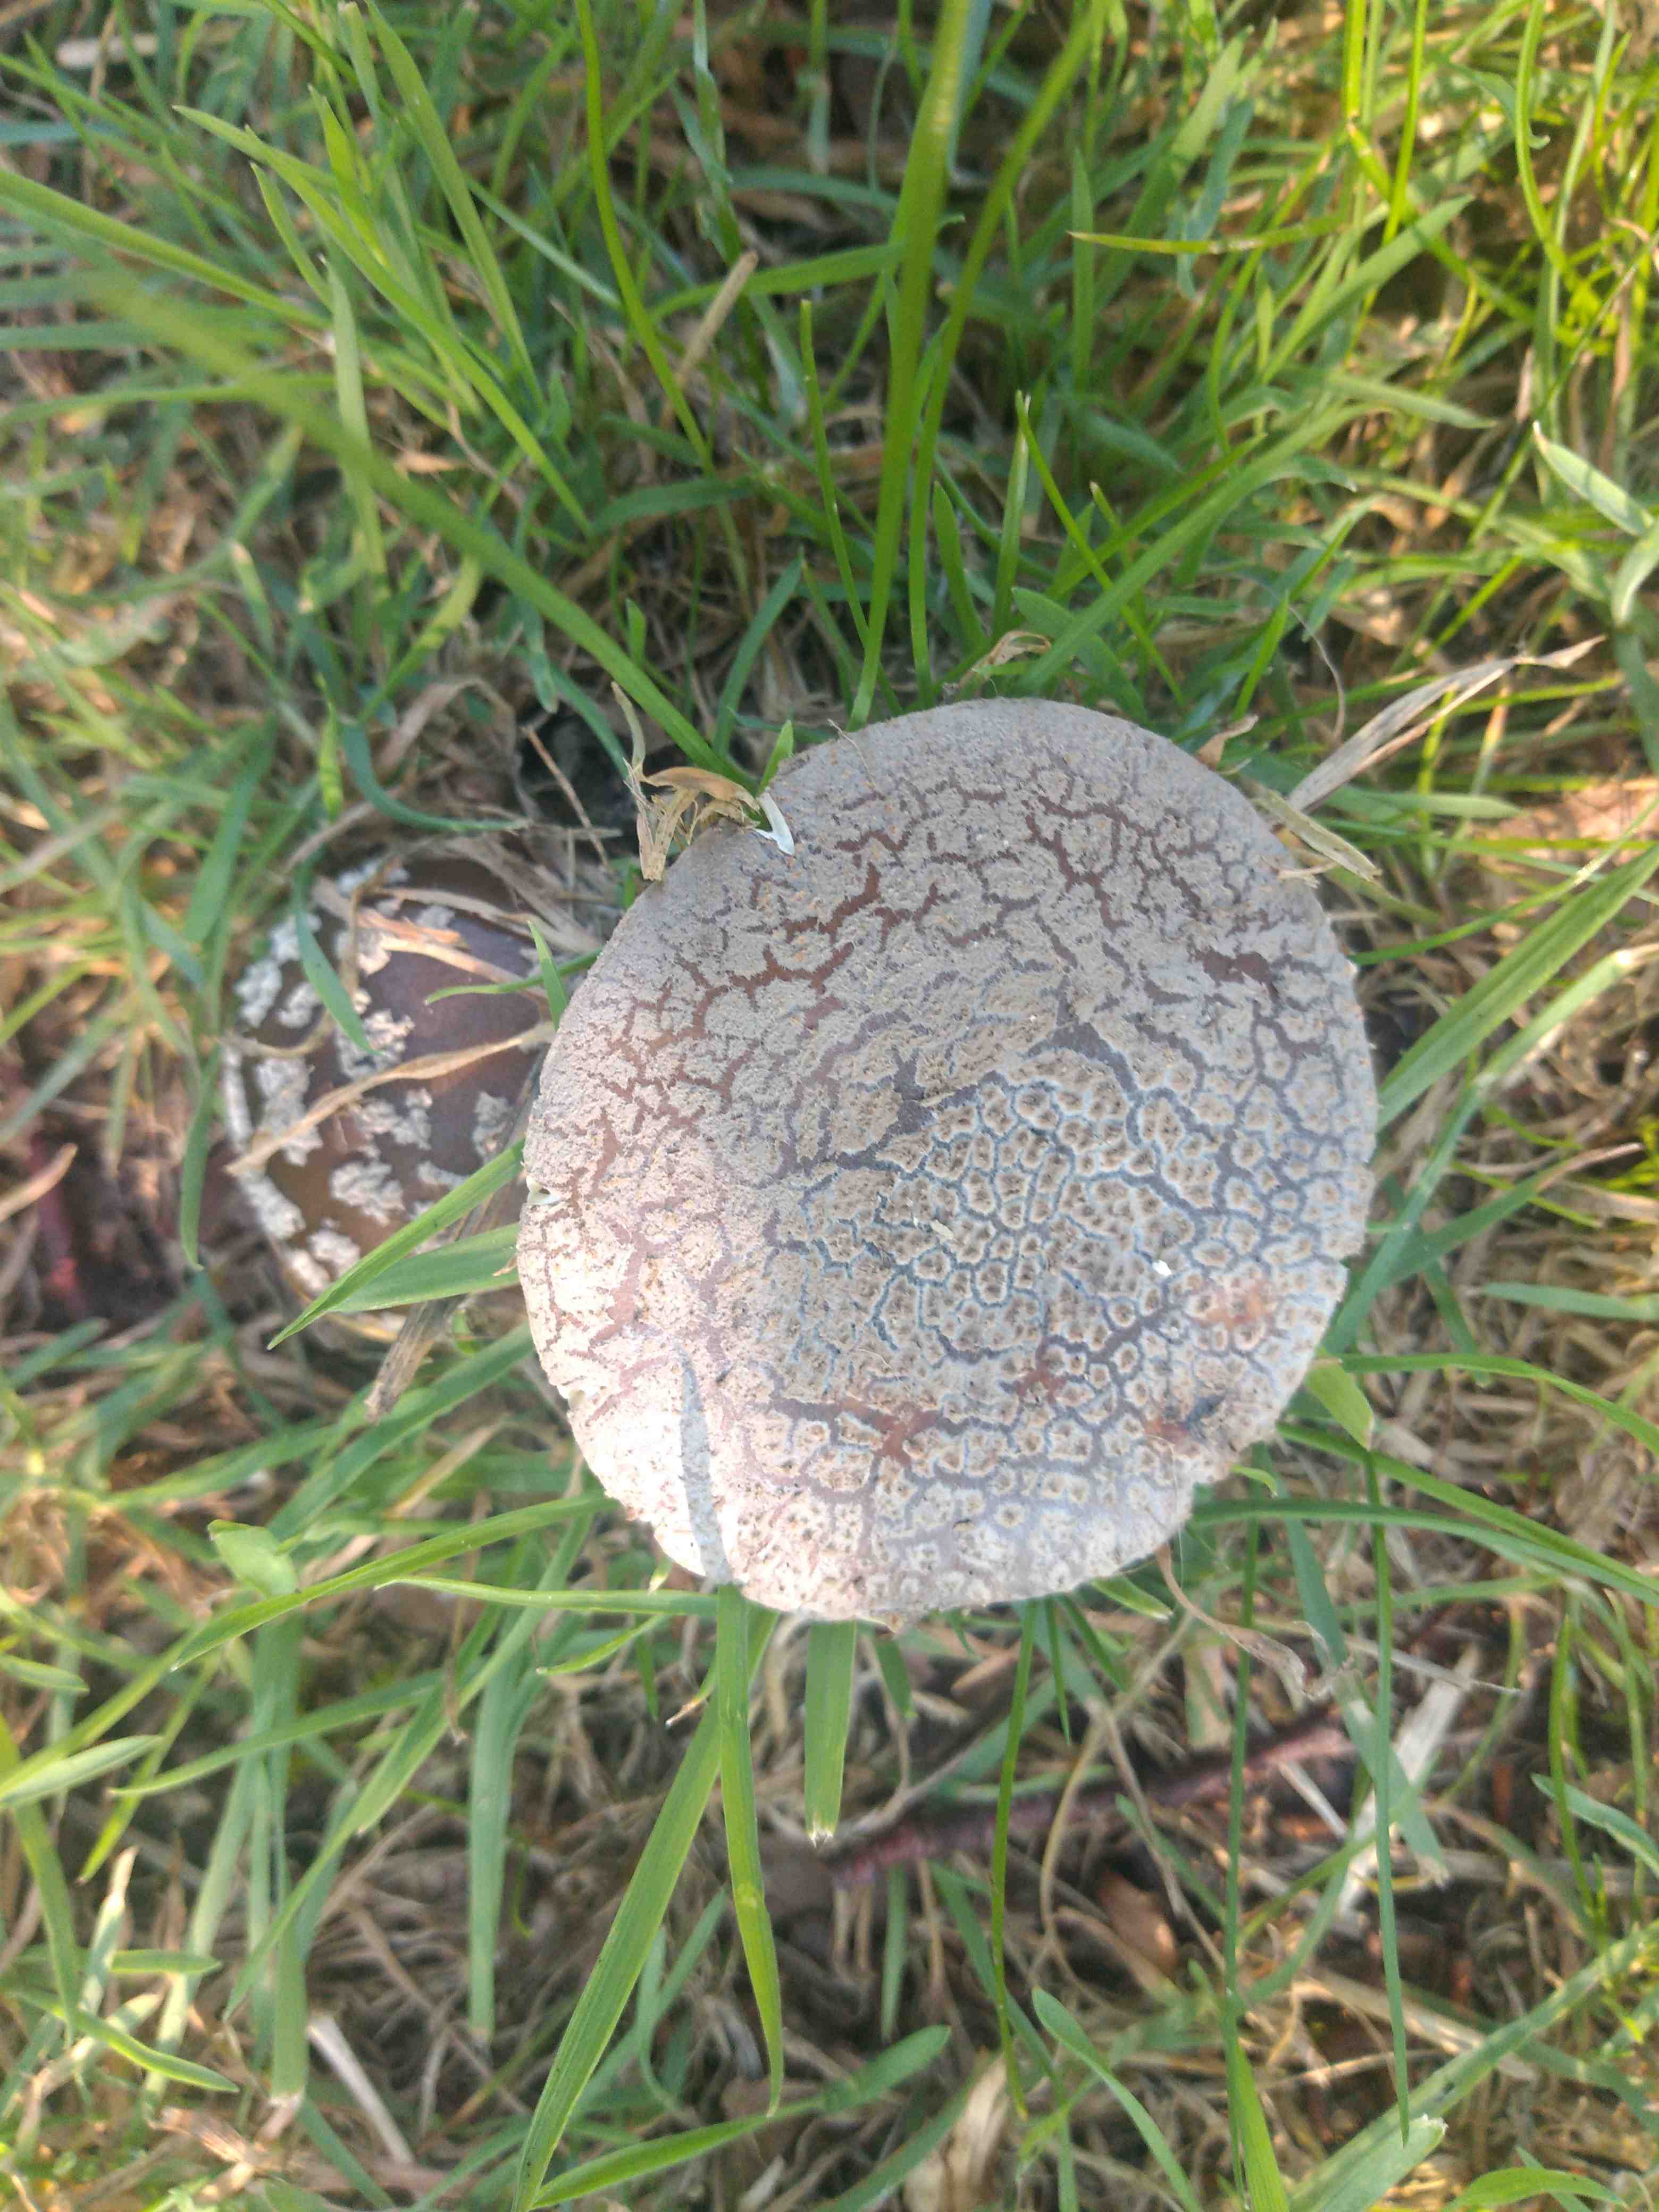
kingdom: Fungi
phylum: Basidiomycota
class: Agaricomycetes
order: Agaricales
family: Amanitaceae
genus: Amanita
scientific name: Amanita
